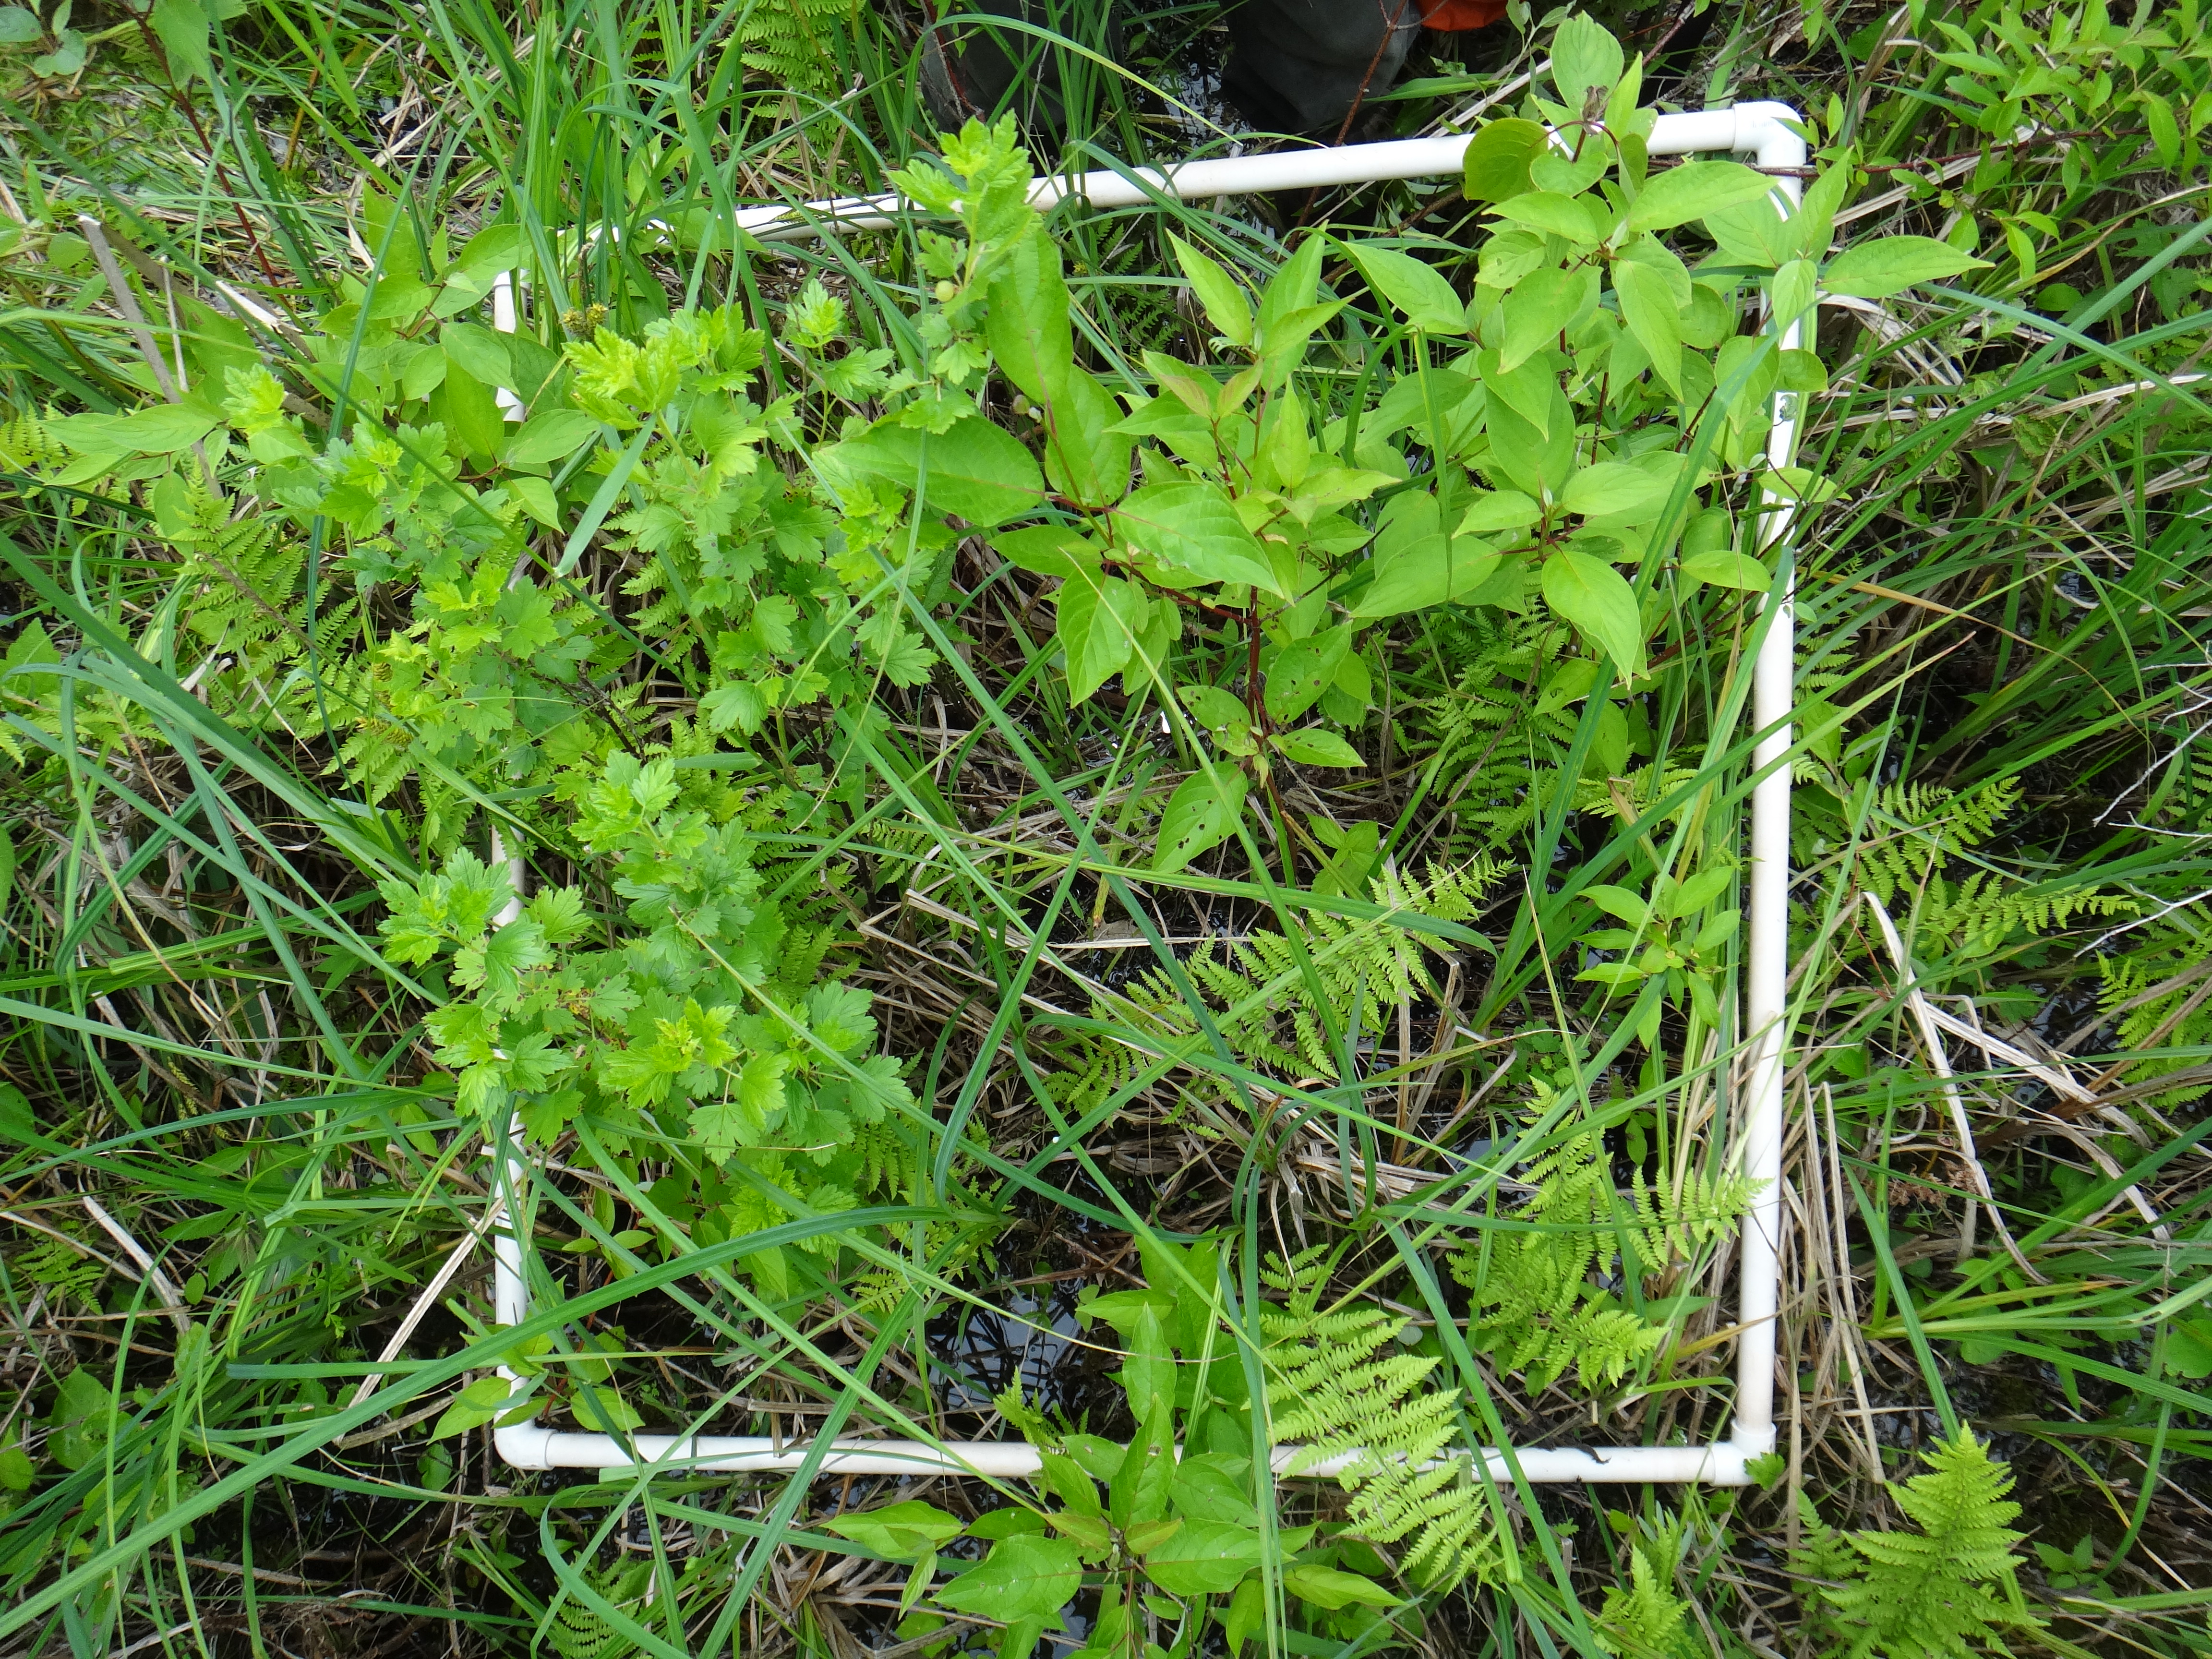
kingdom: Plantae
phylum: Tracheophyta
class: Magnoliopsida
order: Asterales
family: Asteraceae
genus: Eupatorium
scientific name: Eupatorium perfoliatum
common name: Boneset
